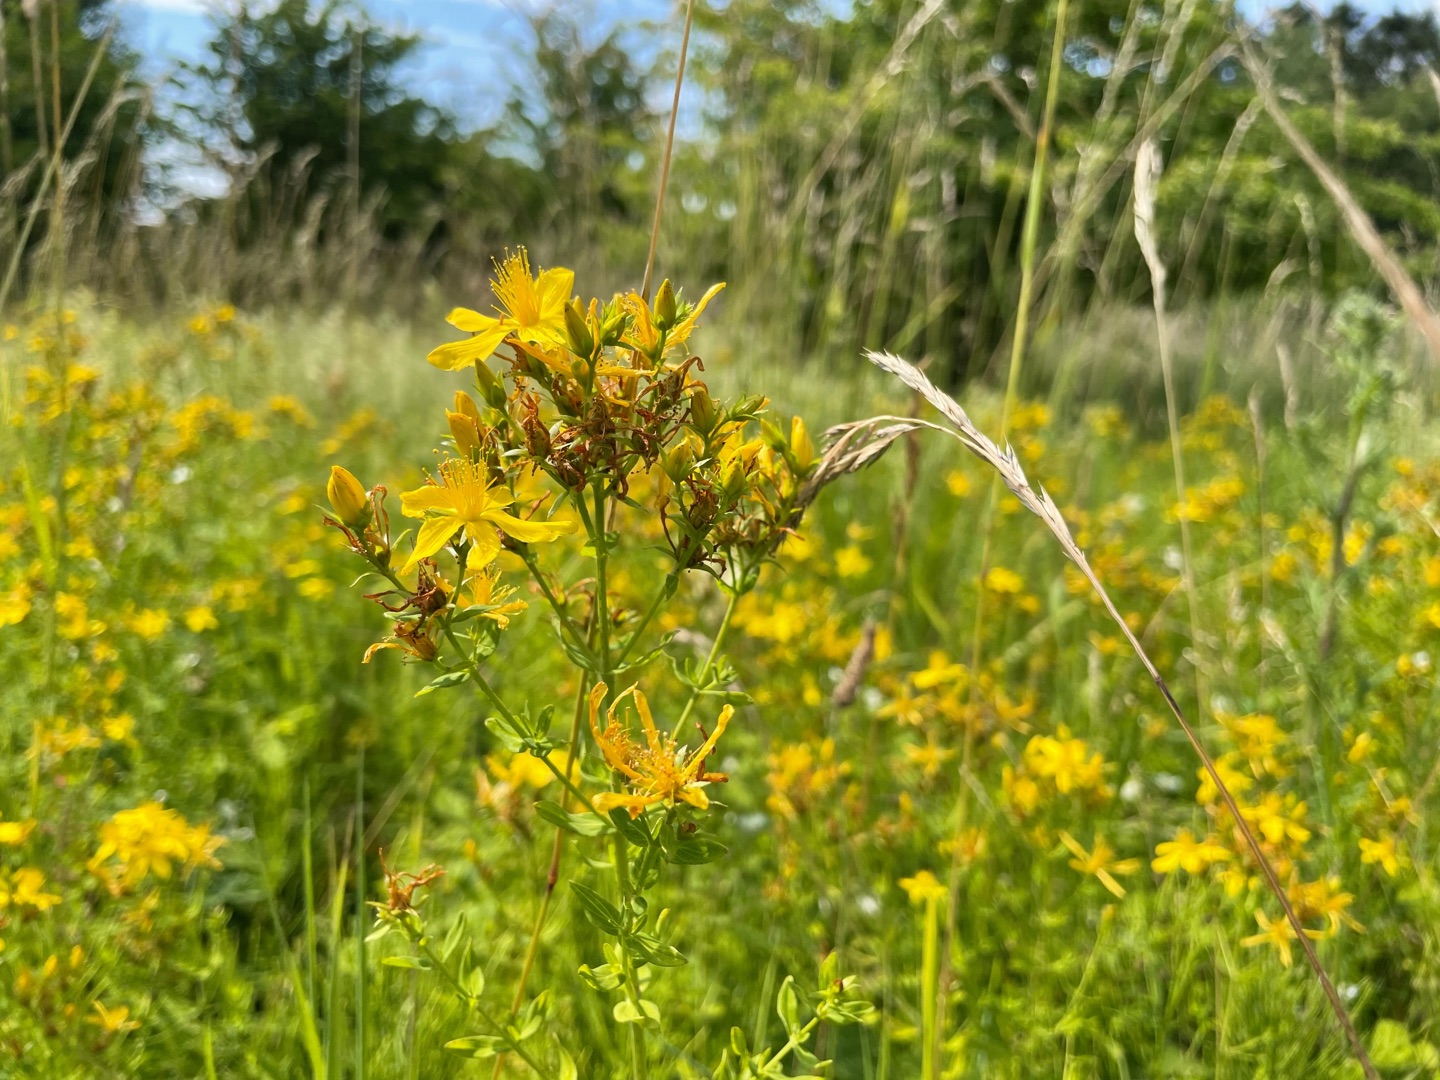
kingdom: Plantae
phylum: Tracheophyta
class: Magnoliopsida
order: Malpighiales
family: Hypericaceae
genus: Hypericum
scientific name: Hypericum perforatum
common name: Prikbladet perikon
